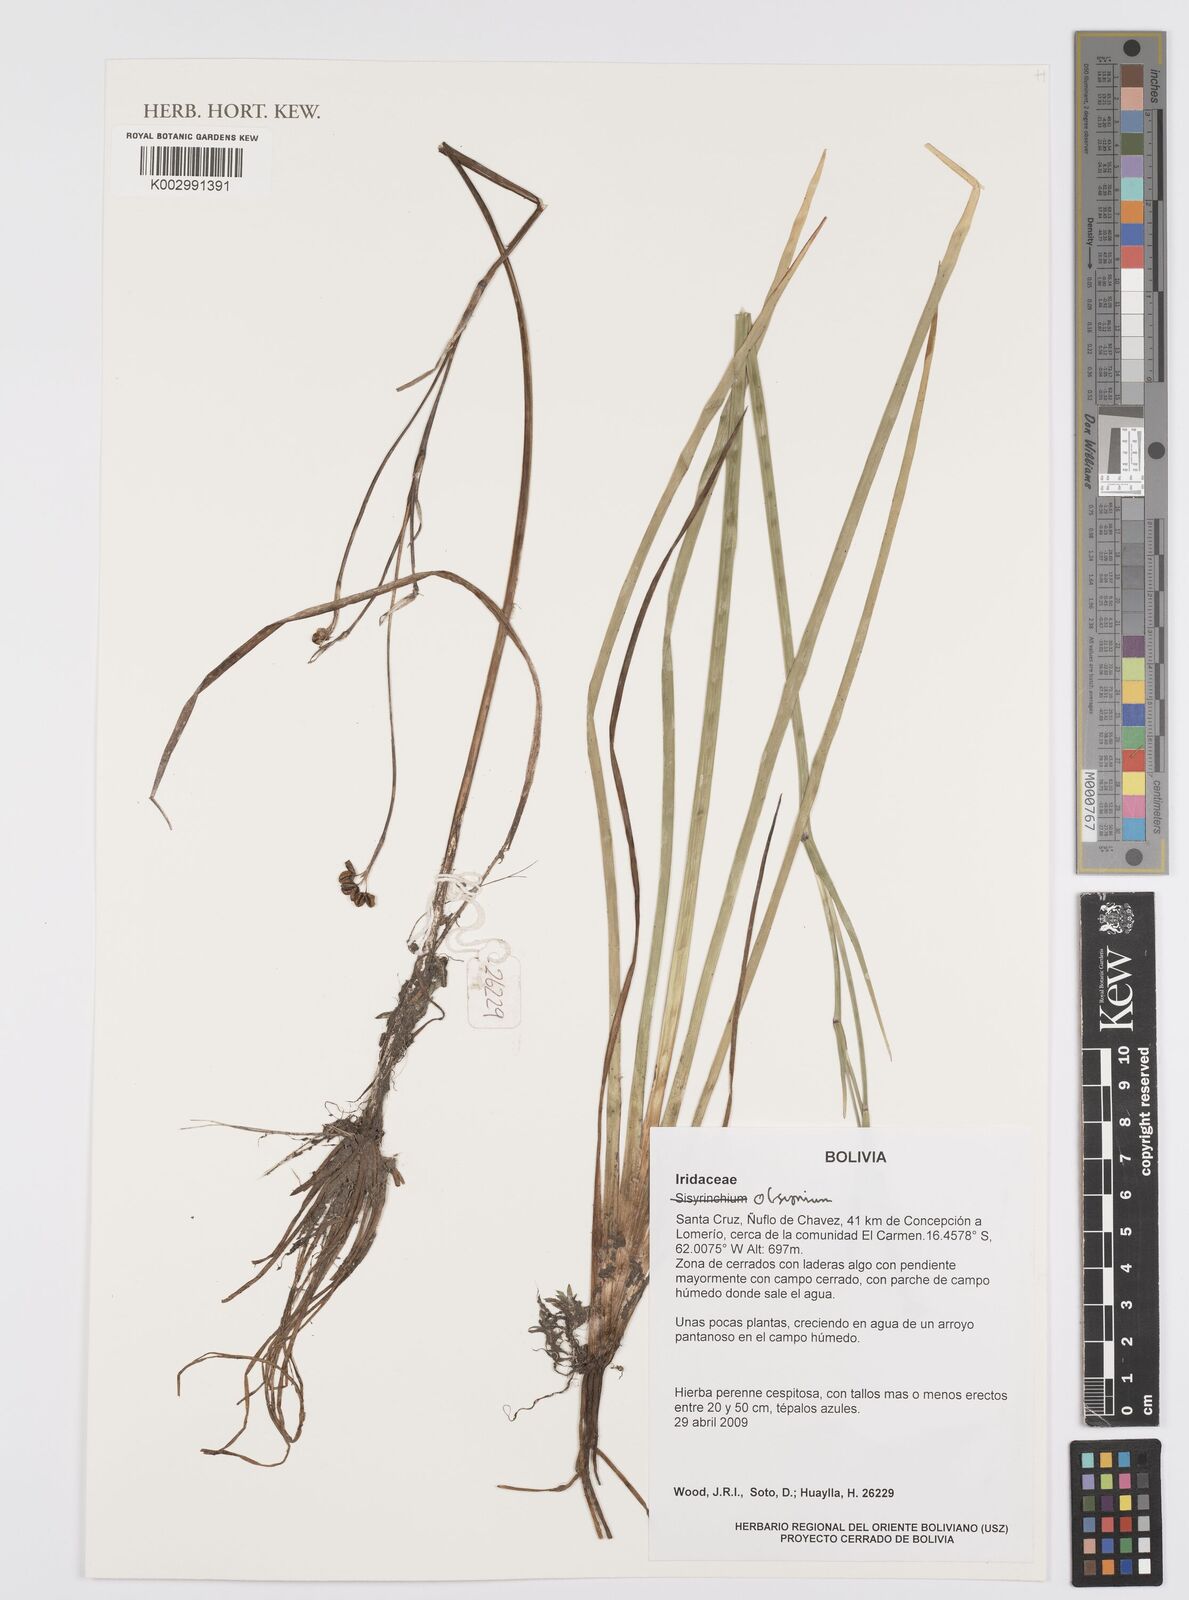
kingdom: Plantae
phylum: Tracheophyta
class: Liliopsida
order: Asparagales
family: Iridaceae
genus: Olsynium
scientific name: Olsynium junceum
